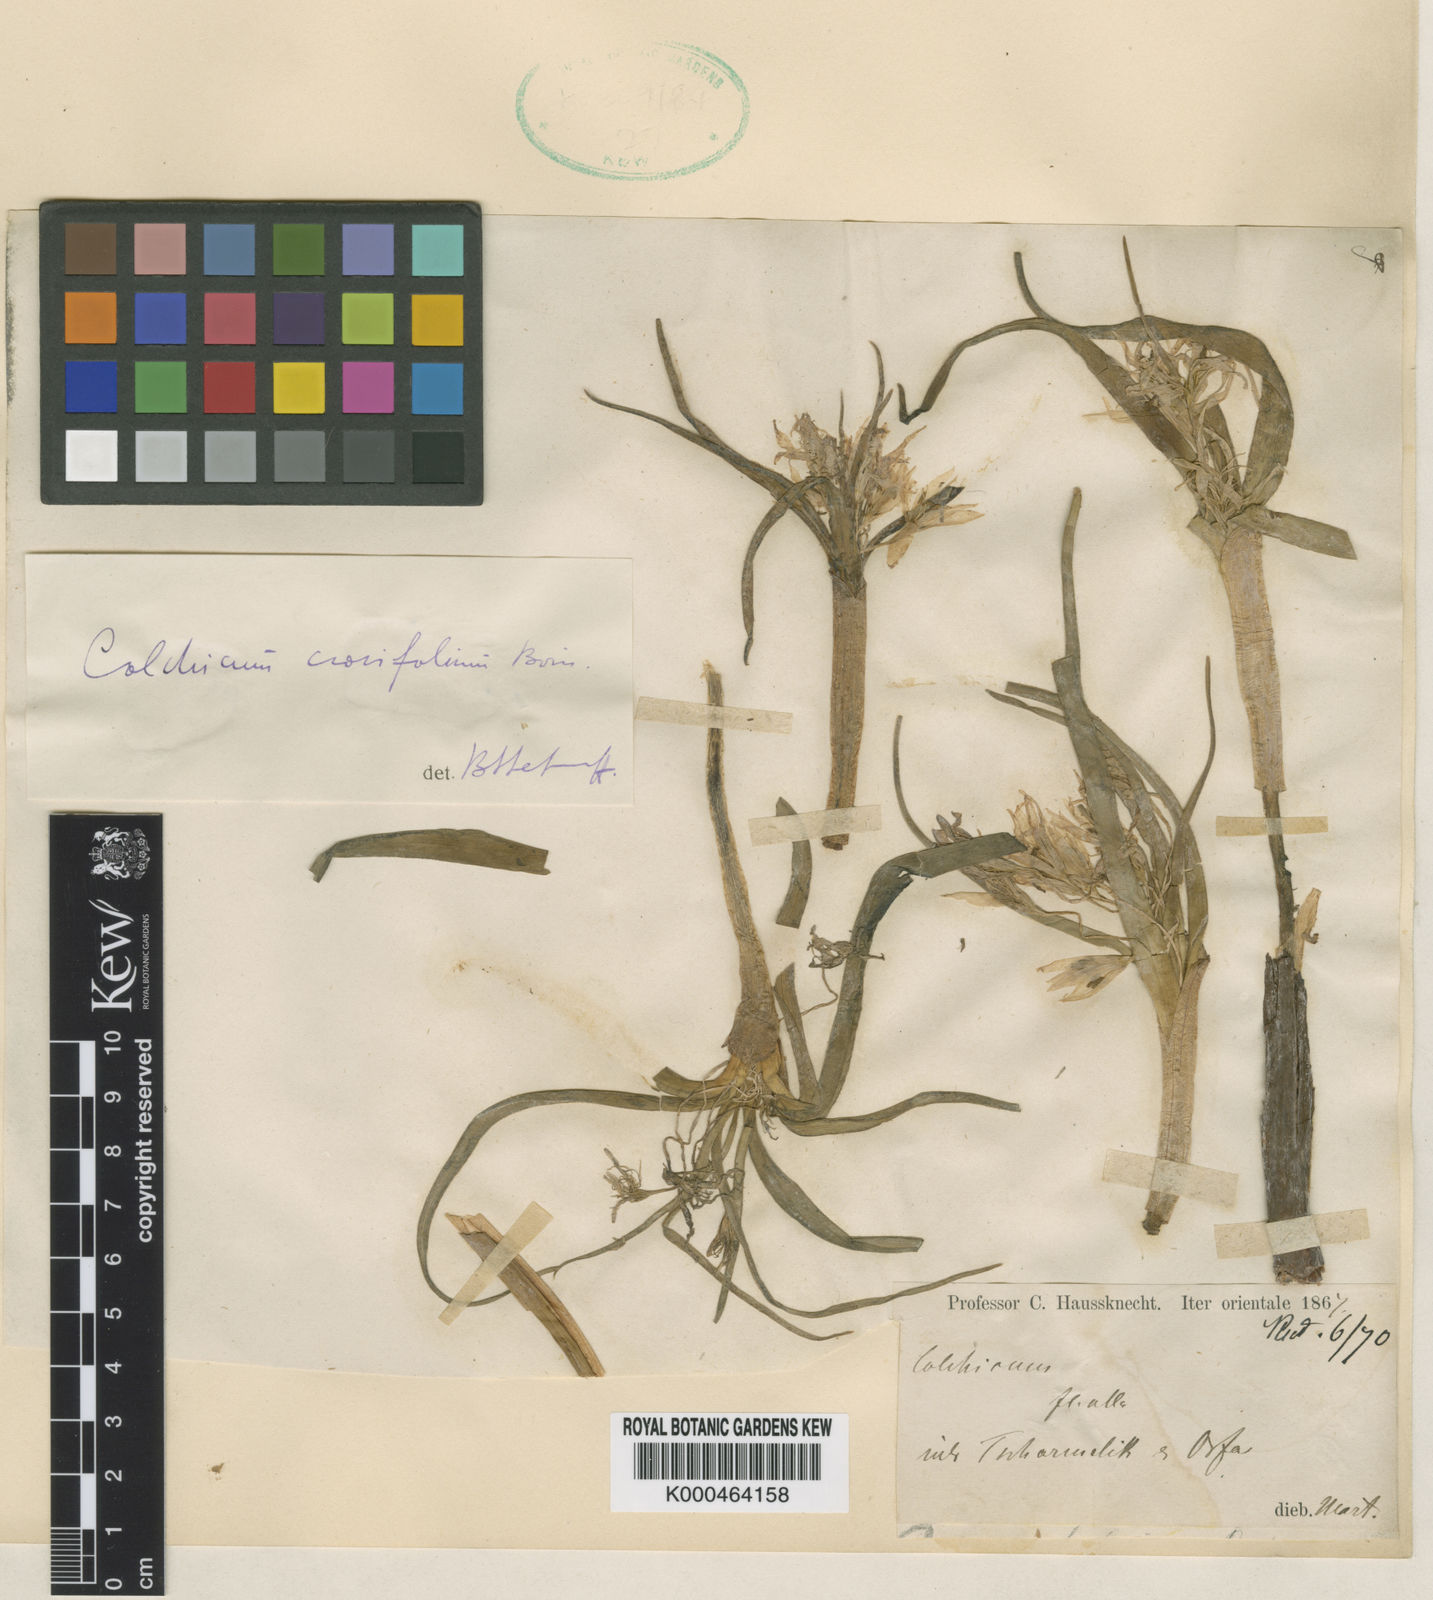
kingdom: Plantae
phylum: Tracheophyta
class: Liliopsida
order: Liliales
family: Colchicaceae
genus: Colchicum
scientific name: Colchicum crocifolium
